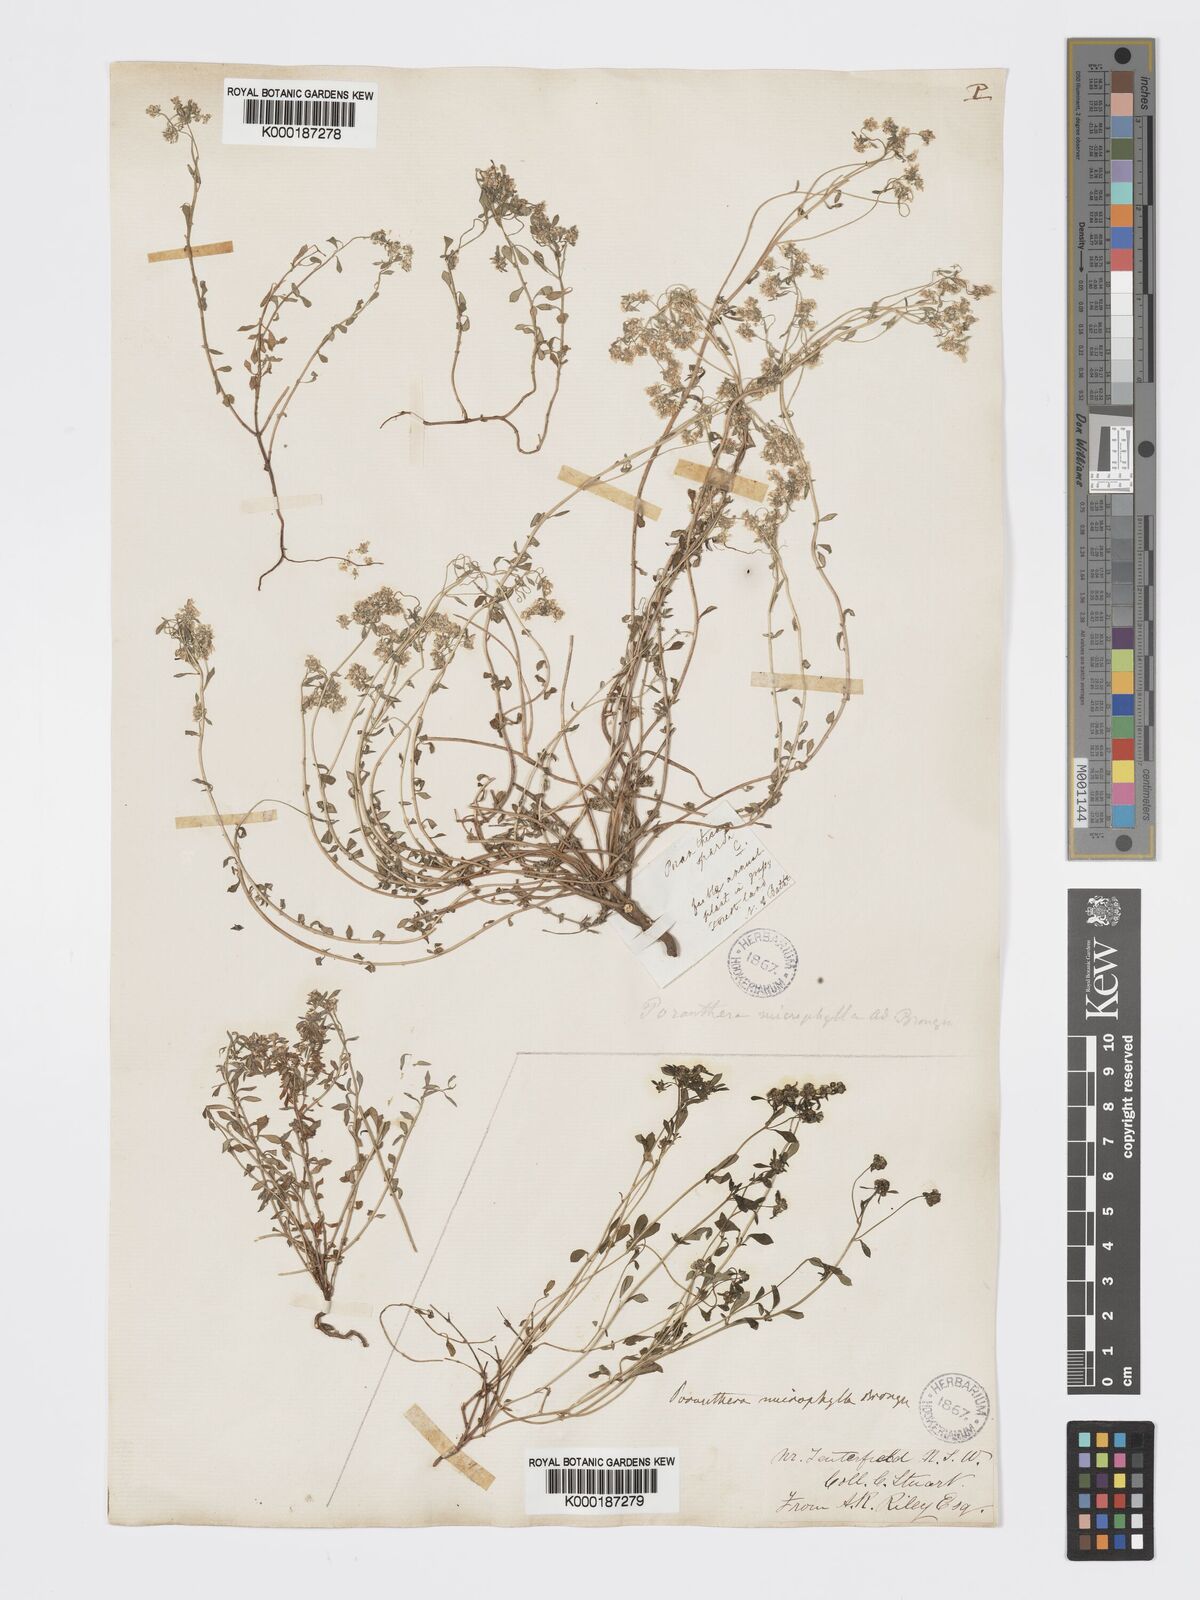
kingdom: Plantae
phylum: Tracheophyta
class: Magnoliopsida
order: Malpighiales
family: Phyllanthaceae
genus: Poranthera
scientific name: Poranthera microphylla
